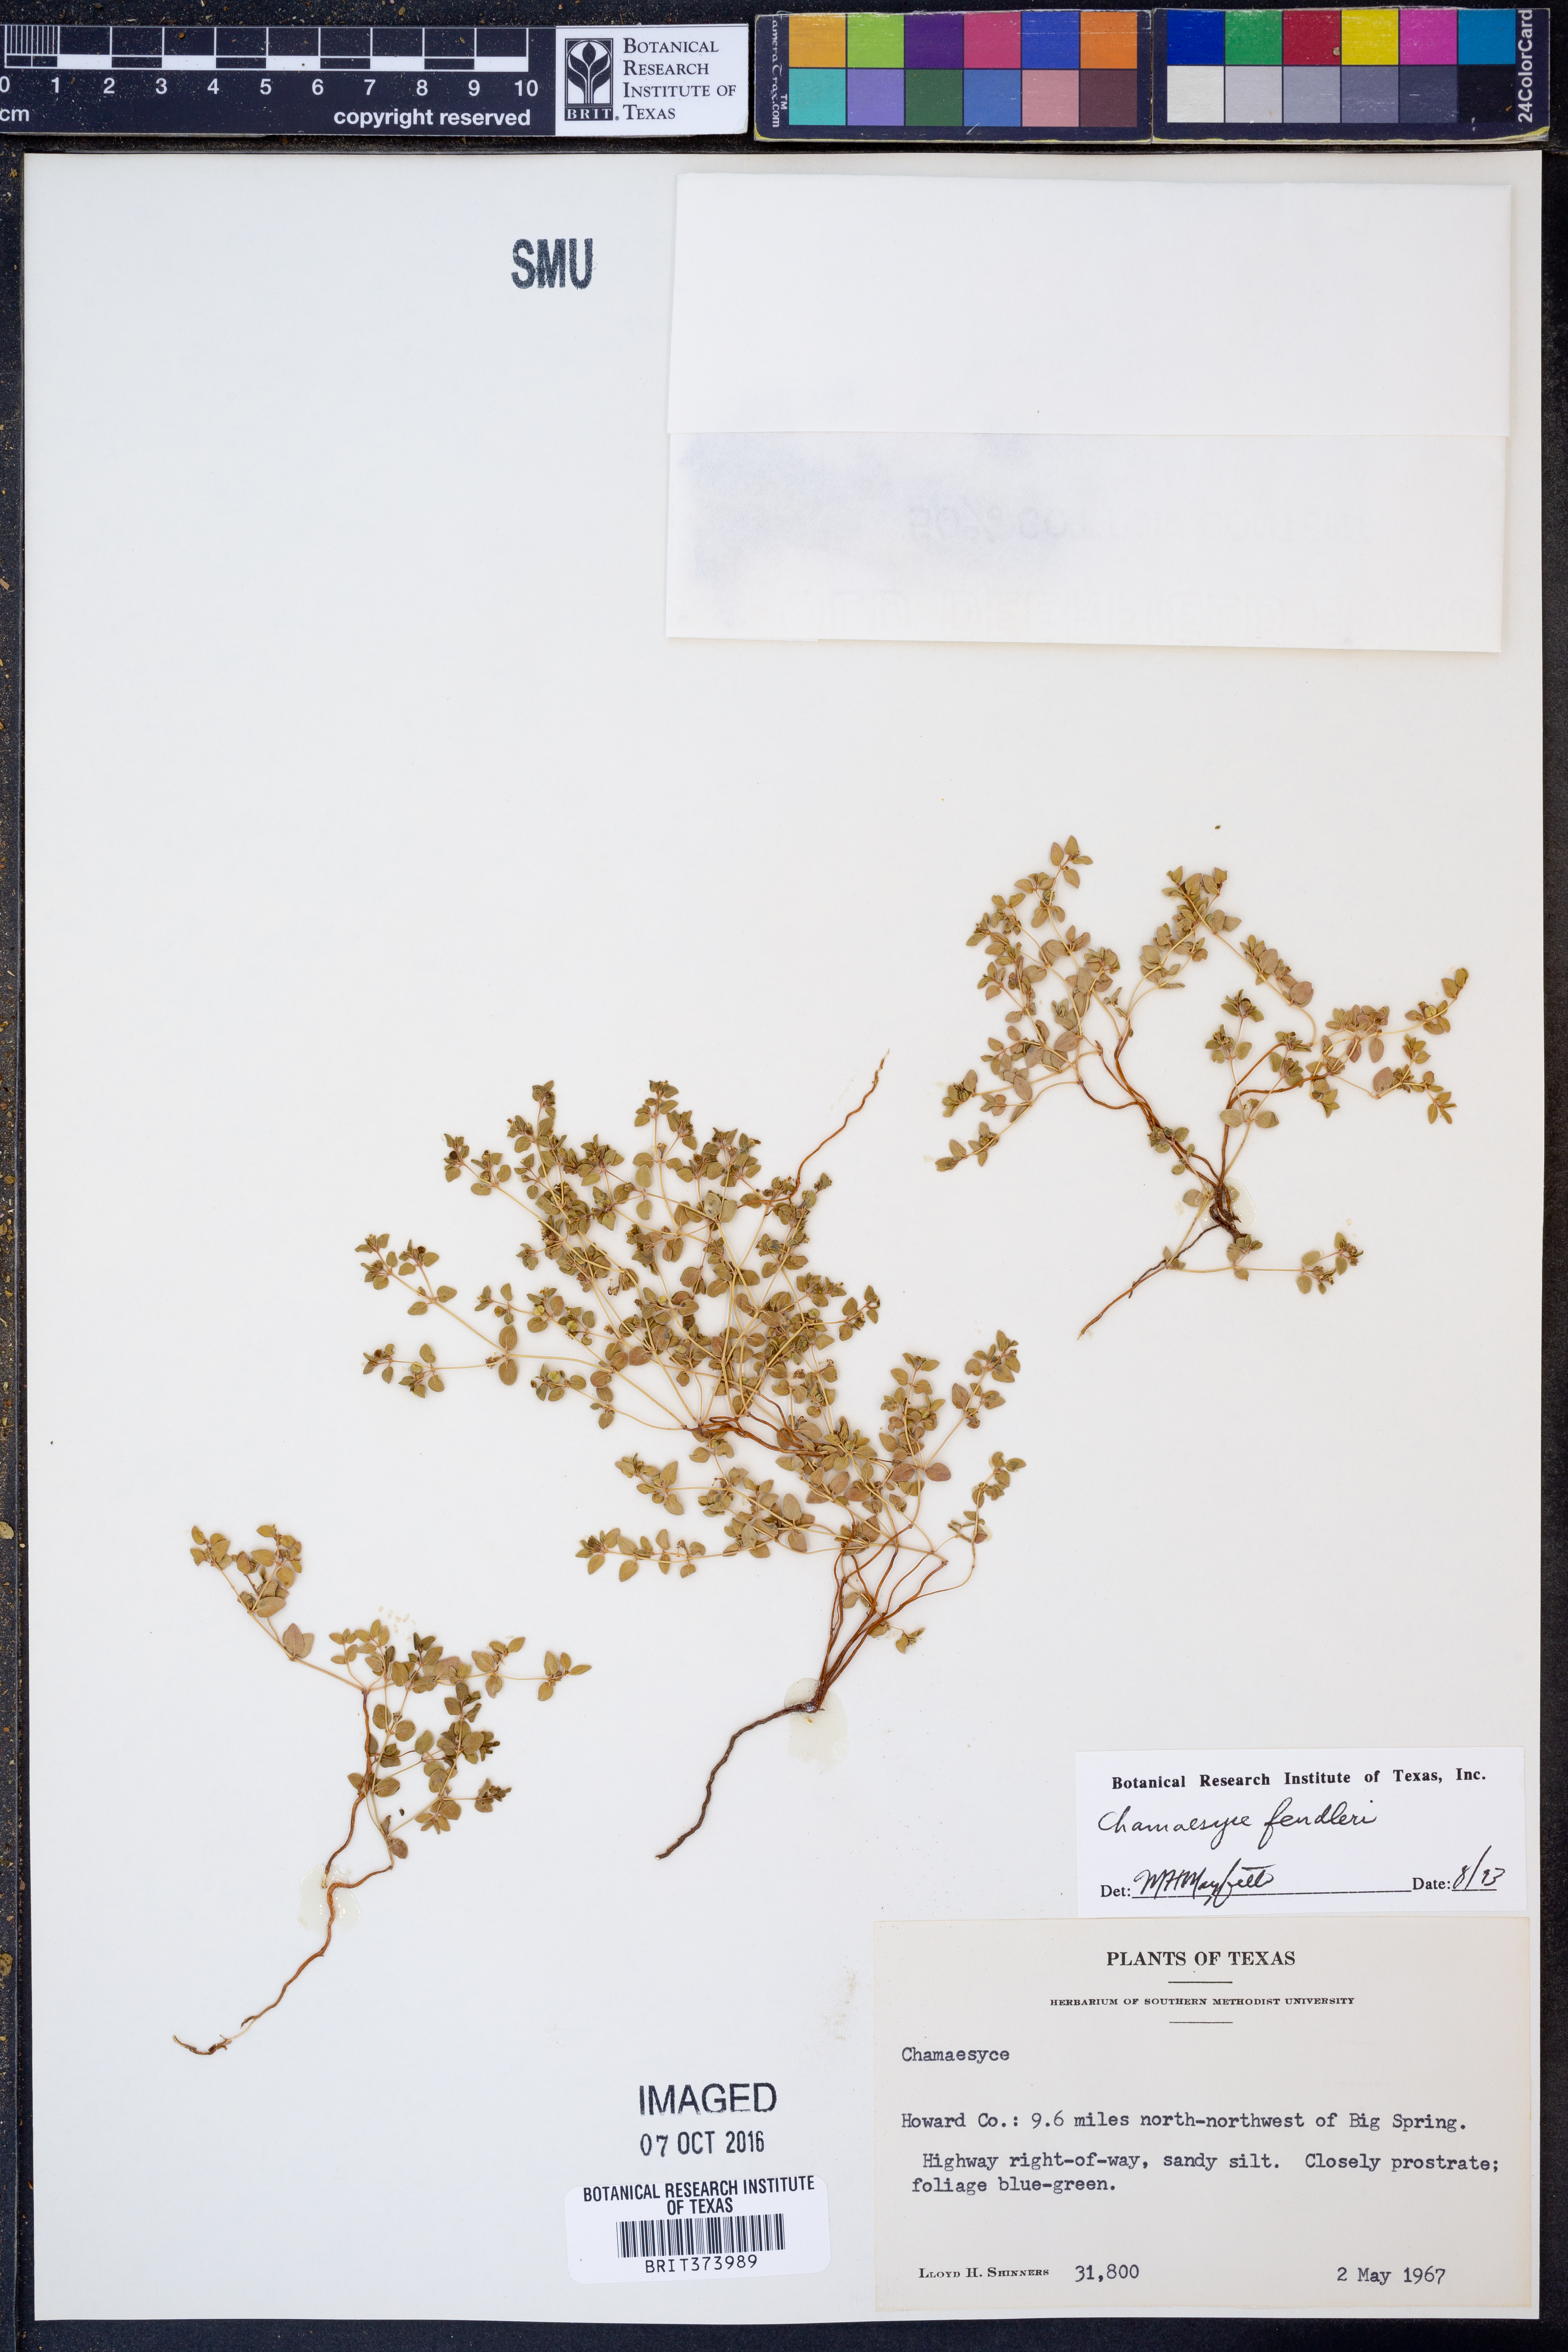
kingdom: Plantae
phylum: Tracheophyta
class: Magnoliopsida
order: Malpighiales
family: Euphorbiaceae
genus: Euphorbia
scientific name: Euphorbia fendleri
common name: Fendler's euphorbia
